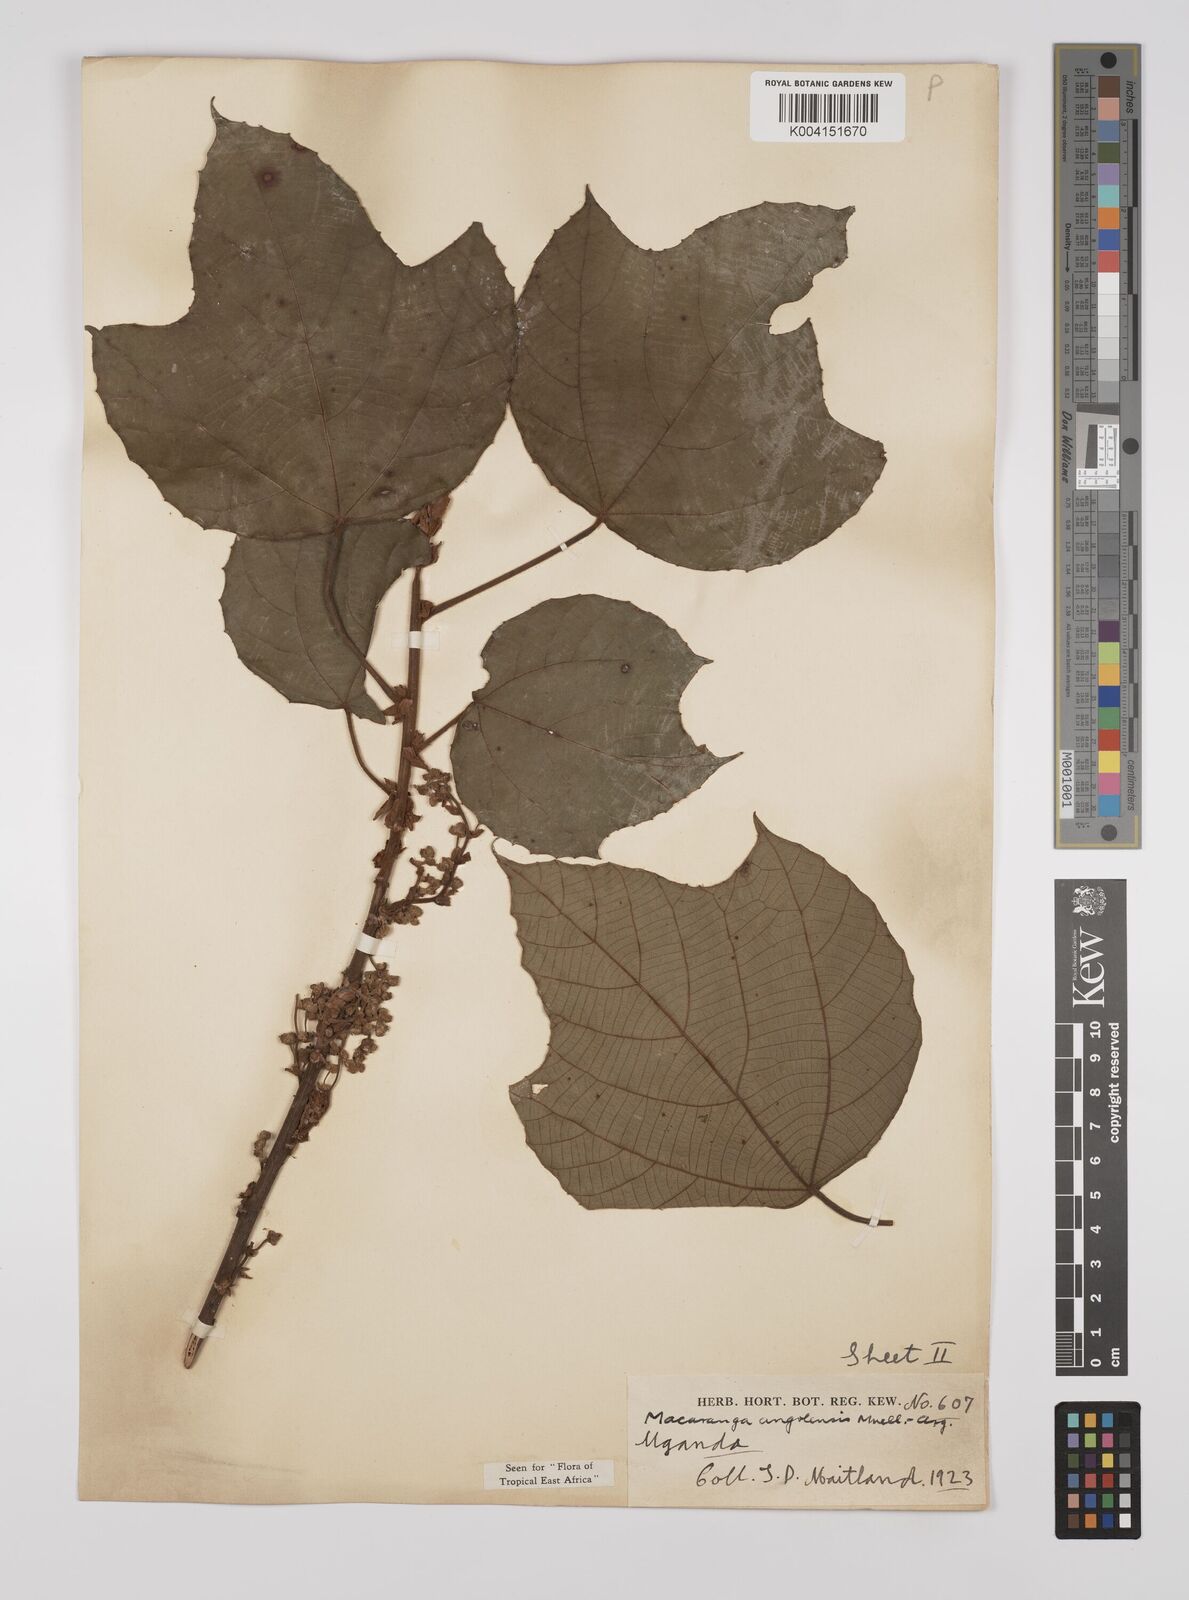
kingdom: Plantae
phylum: Tracheophyta
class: Magnoliopsida
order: Malpighiales
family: Euphorbiaceae
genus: Macaranga
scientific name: Macaranga angolensis
